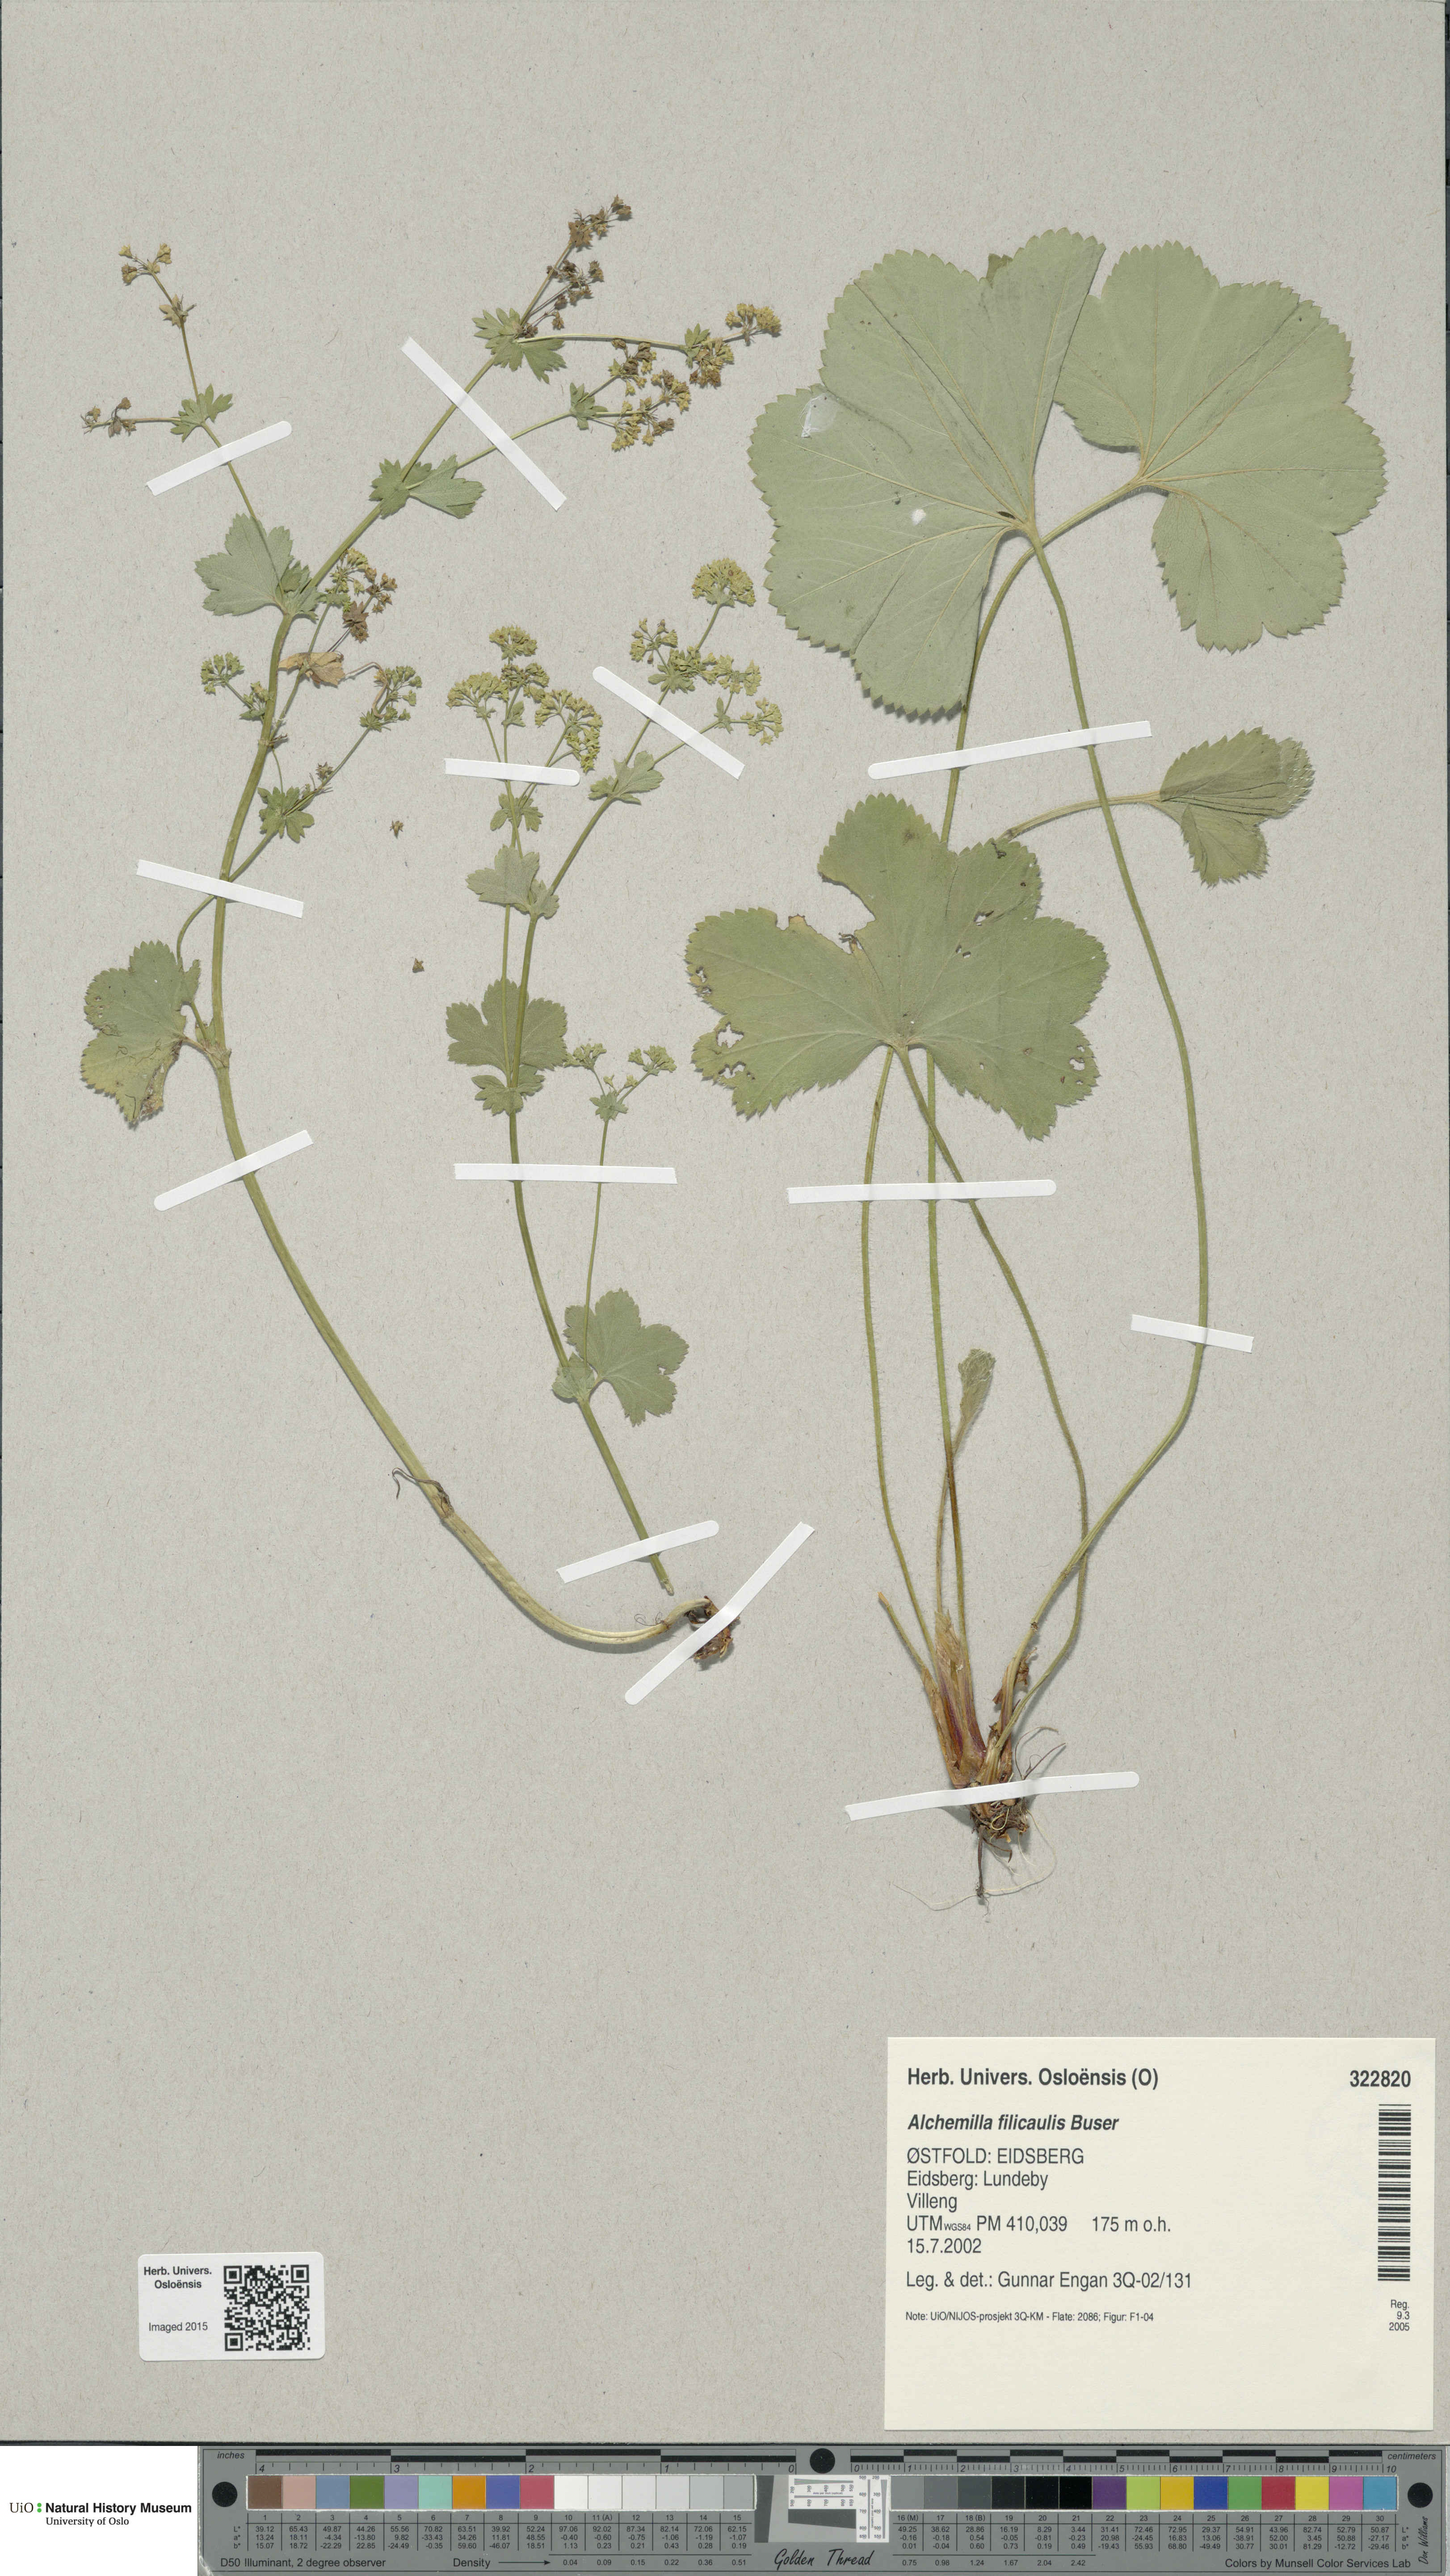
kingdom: Plantae
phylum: Tracheophyta
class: Magnoliopsida
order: Rosales
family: Rosaceae
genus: Alchemilla
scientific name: Alchemilla filicaulis
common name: Hairy lady's-mantle
